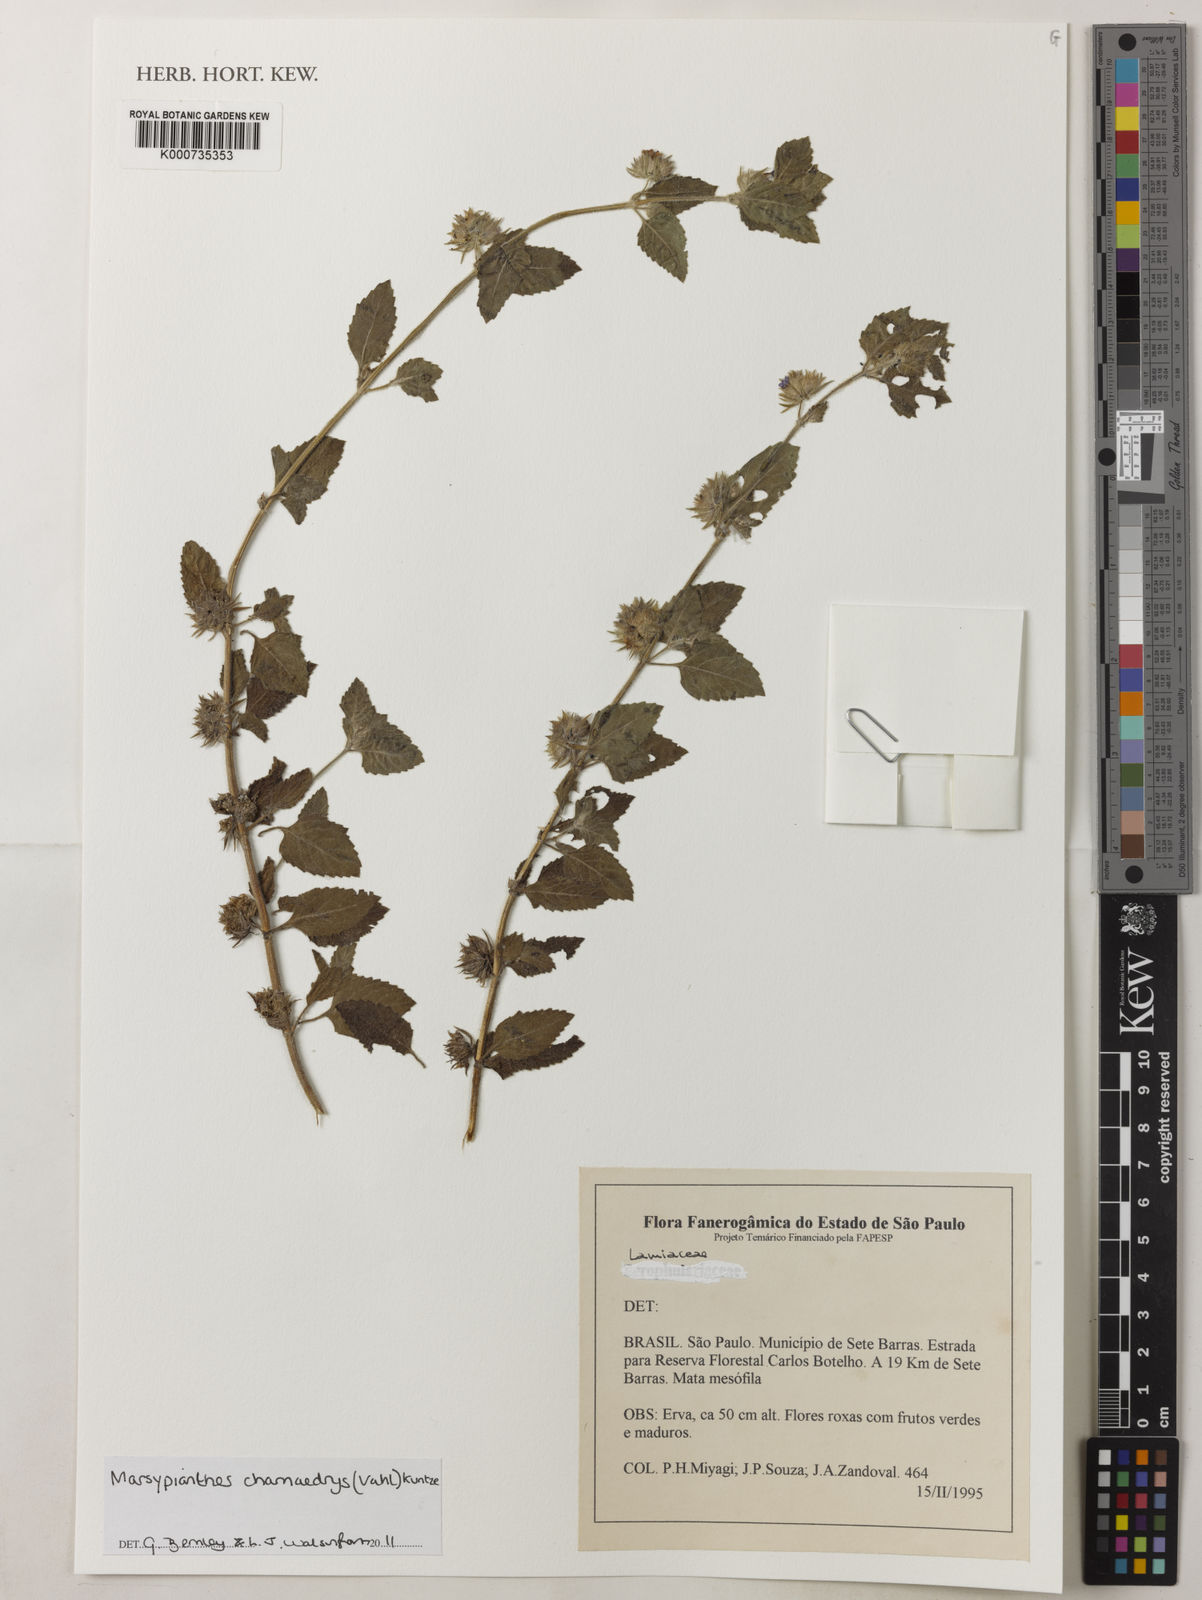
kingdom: Plantae
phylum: Tracheophyta
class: Magnoliopsida
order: Lamiales
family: Lamiaceae
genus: Marsypianthes
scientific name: Marsypianthes chamaedrys
